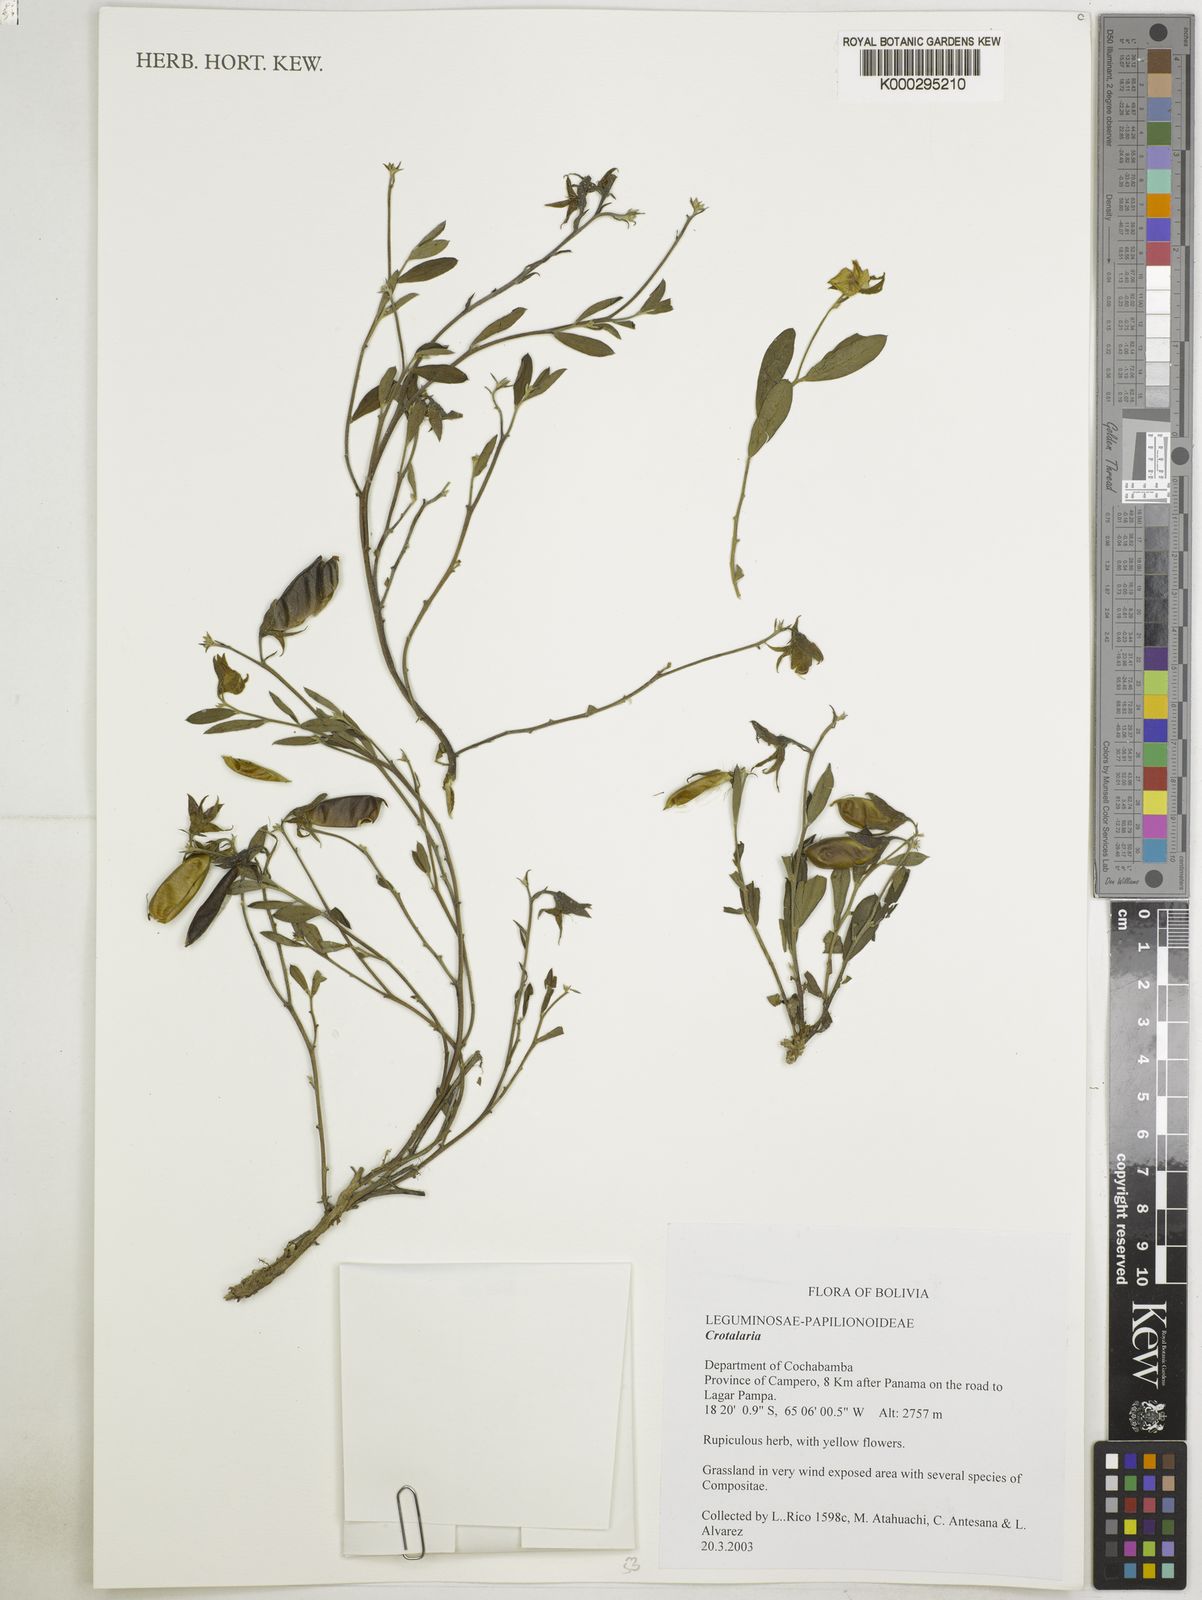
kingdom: Plantae
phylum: Tracheophyta
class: Magnoliopsida
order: Fabales
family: Fabaceae
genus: Crotalaria
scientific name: Crotalaria
